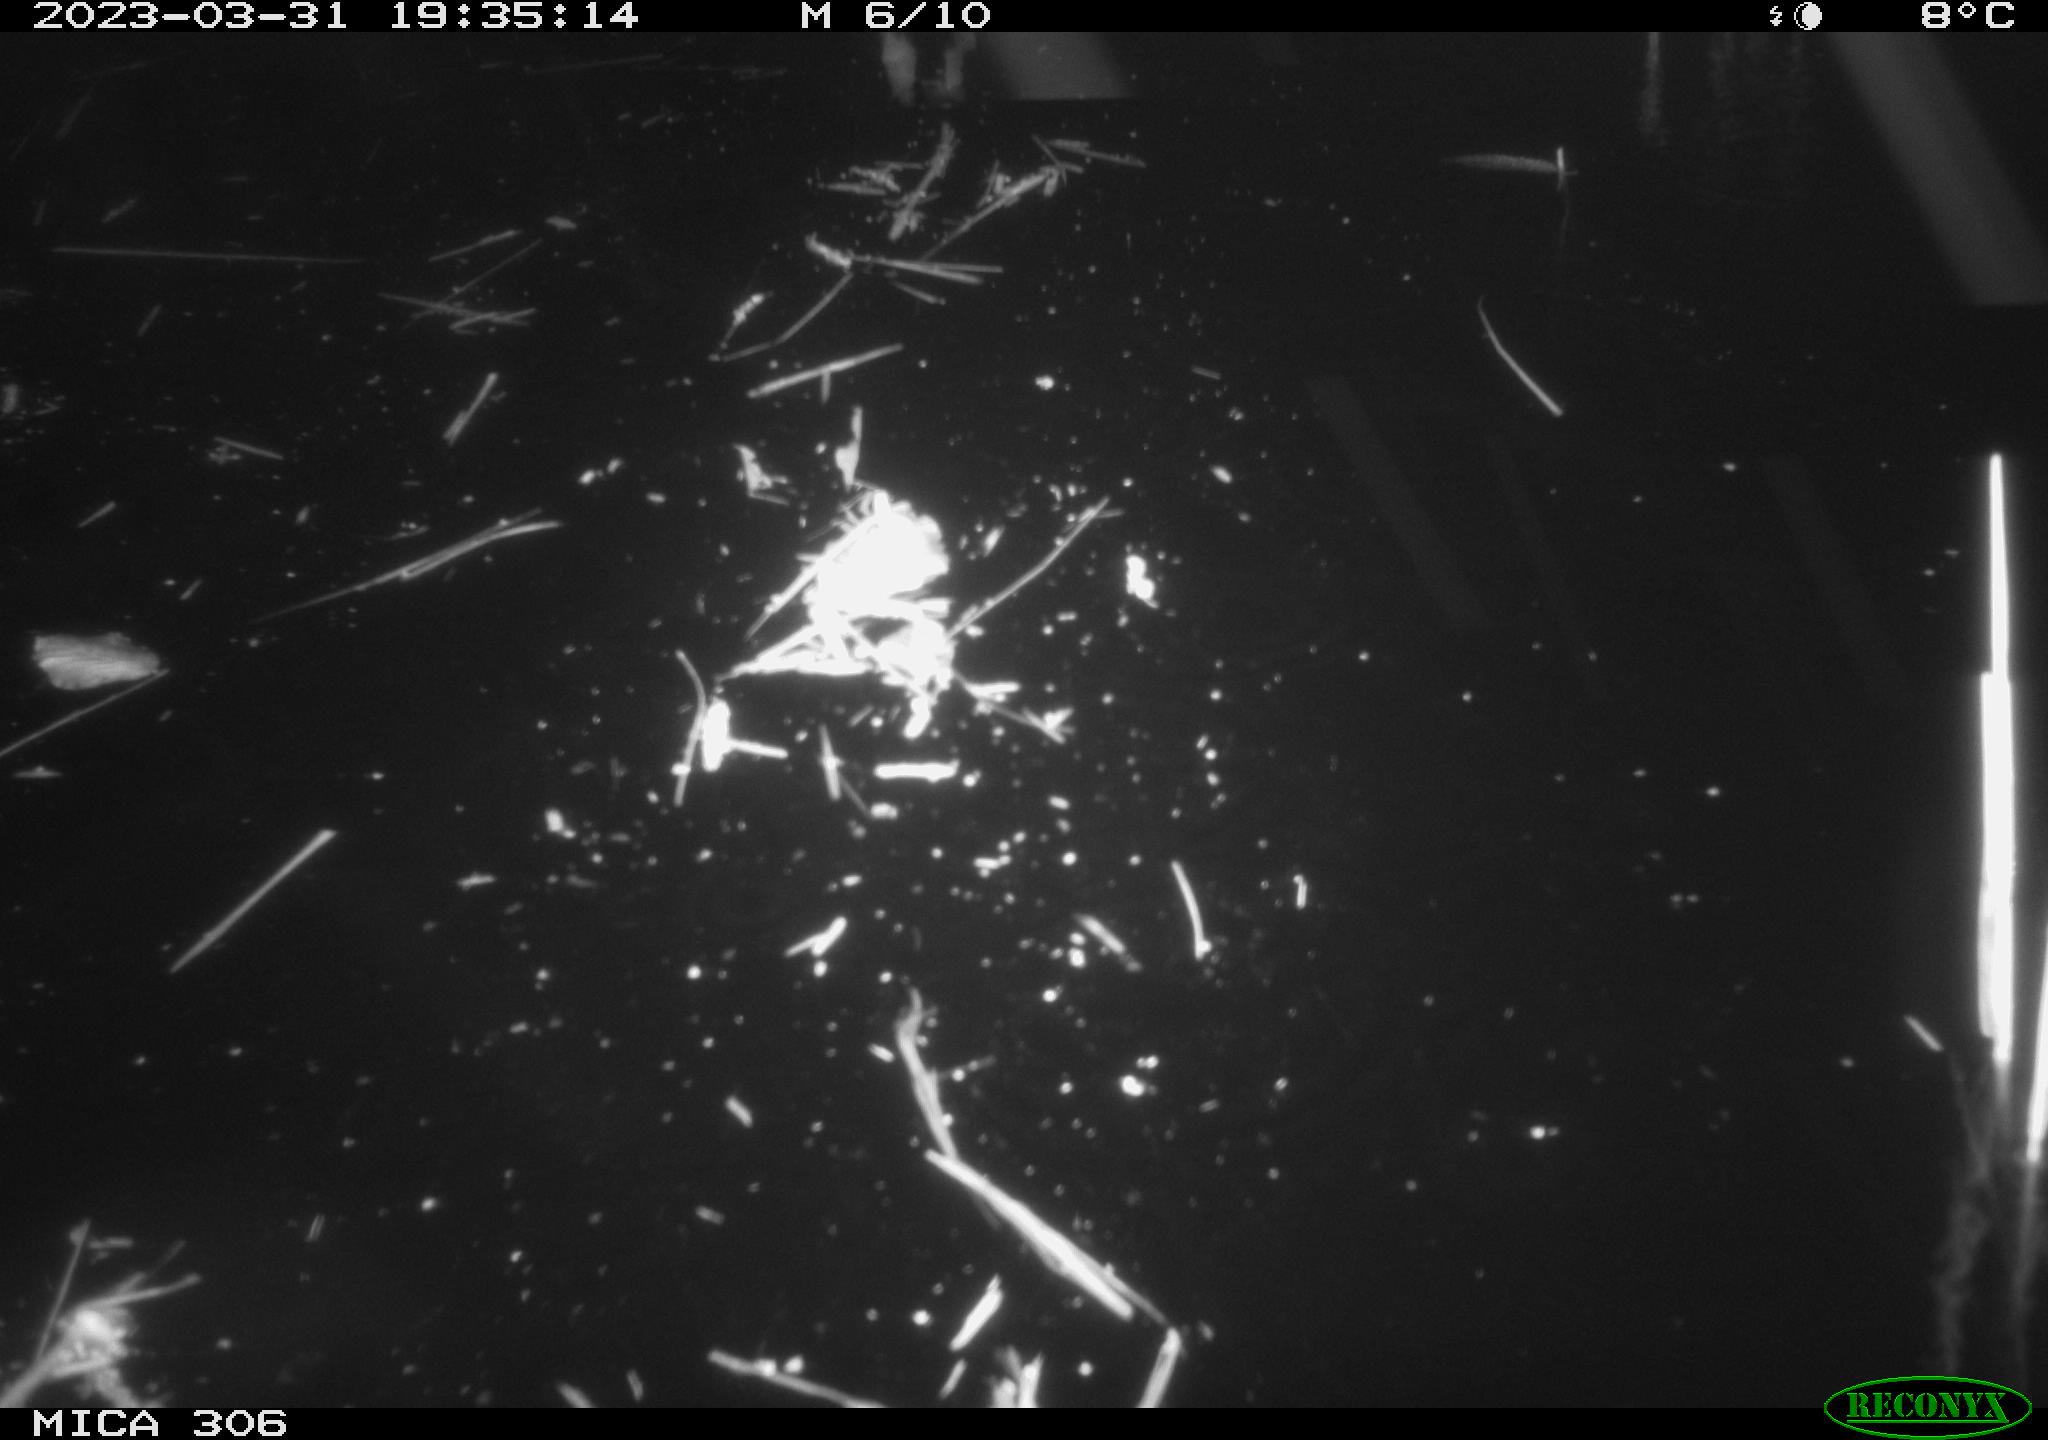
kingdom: Animalia
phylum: Chordata
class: Aves
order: Anseriformes
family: Anatidae
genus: Anas
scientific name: Anas
